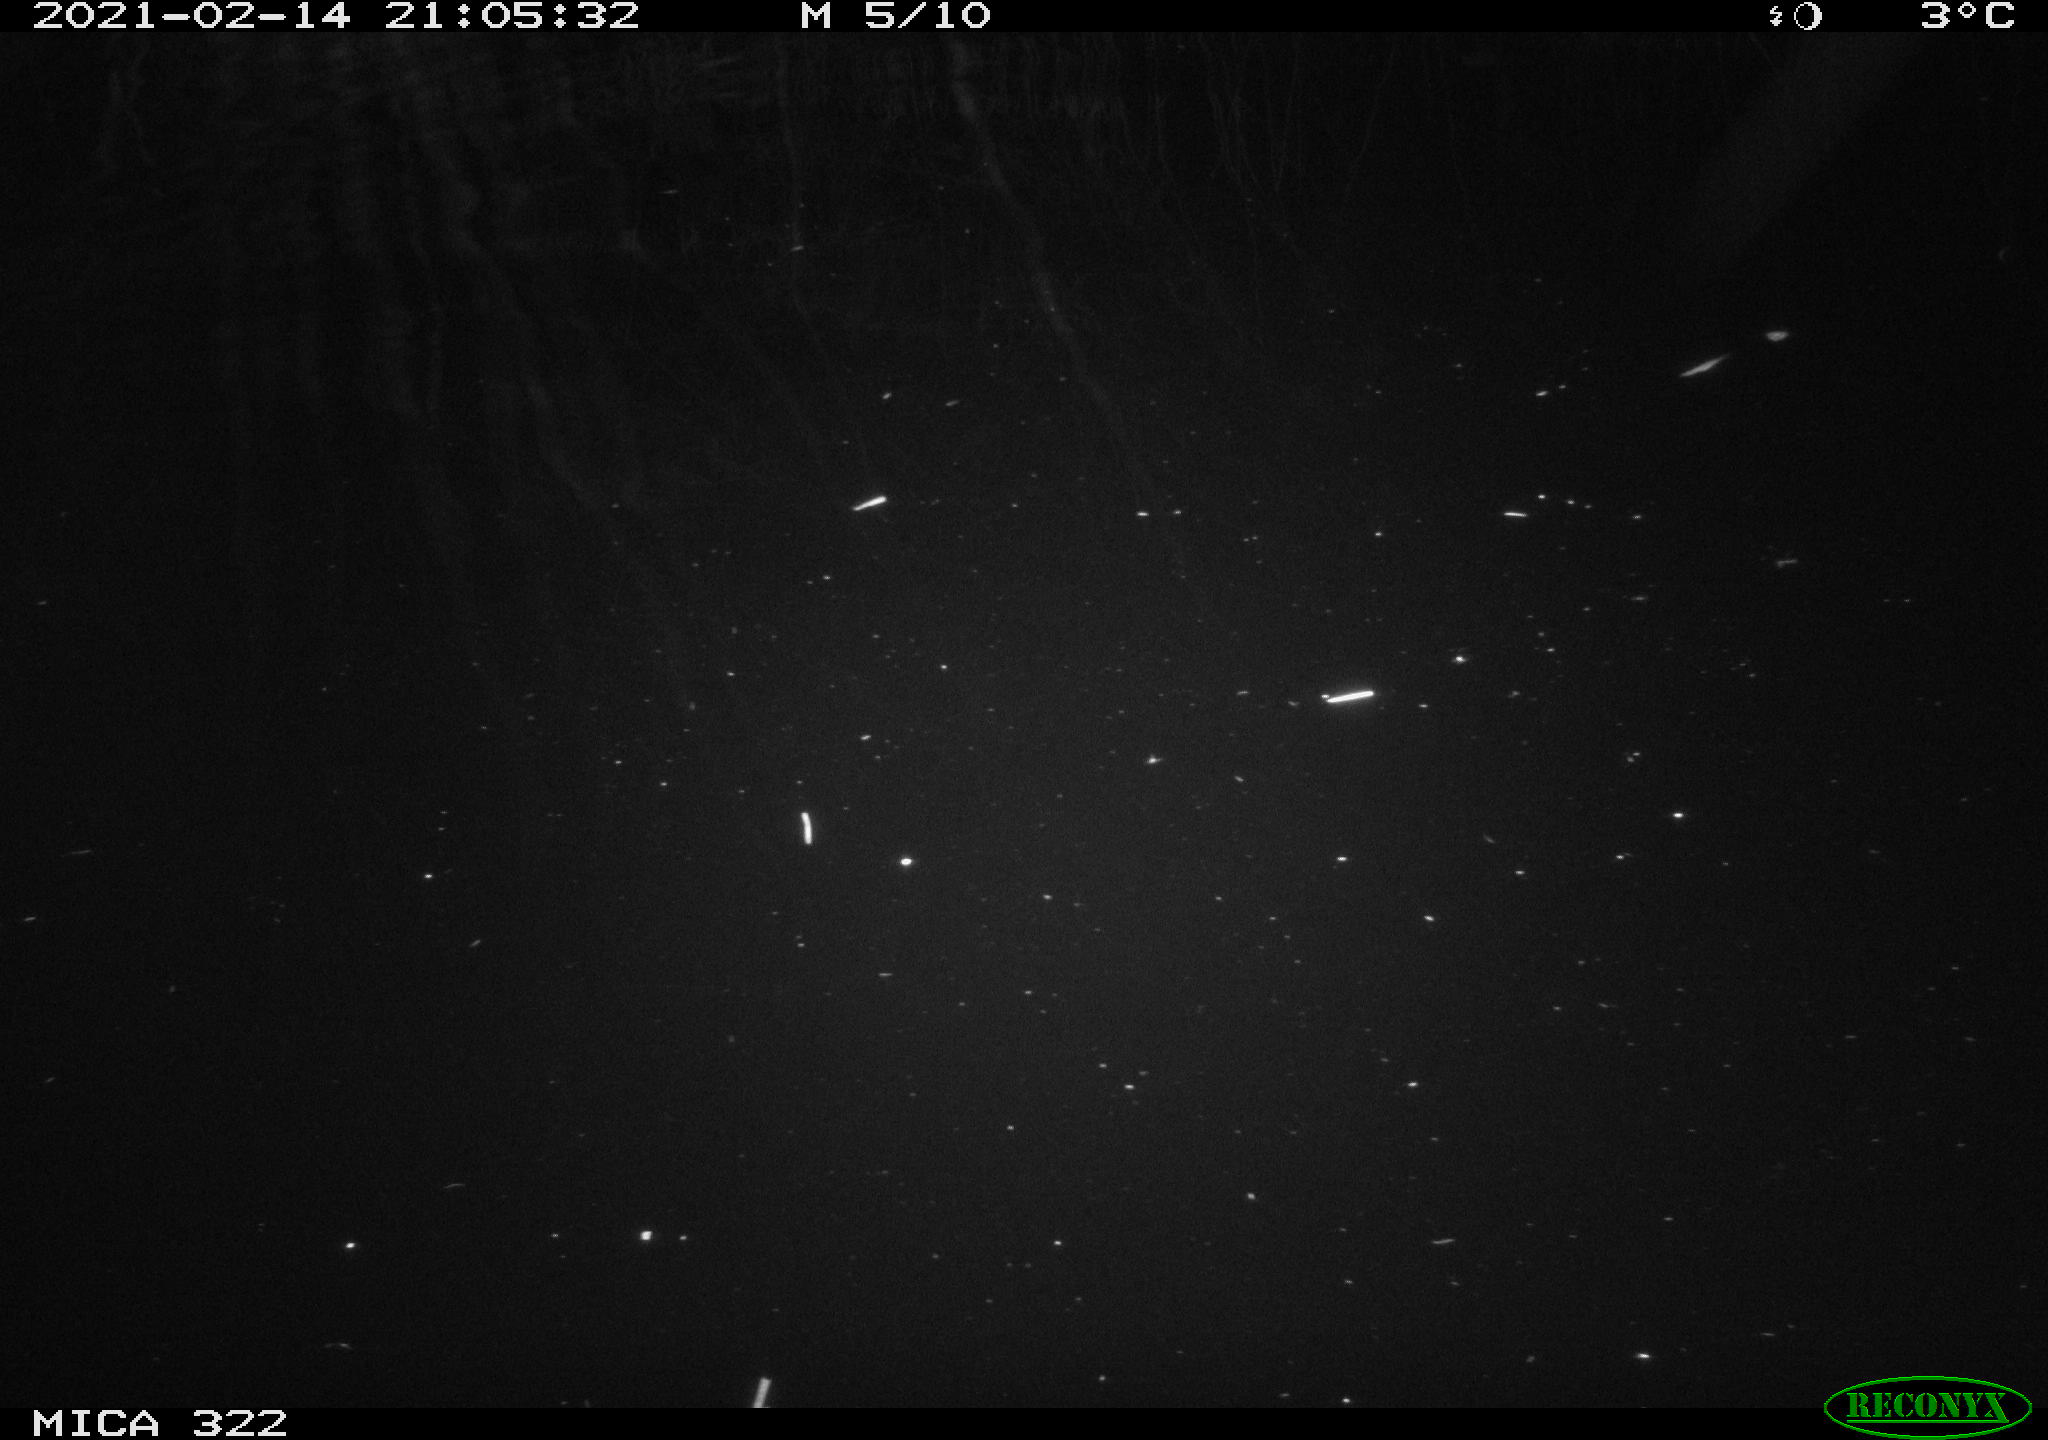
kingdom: Animalia
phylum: Chordata
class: Aves
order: Gruiformes
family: Rallidae
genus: Fulica
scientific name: Fulica atra
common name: Eurasian coot
